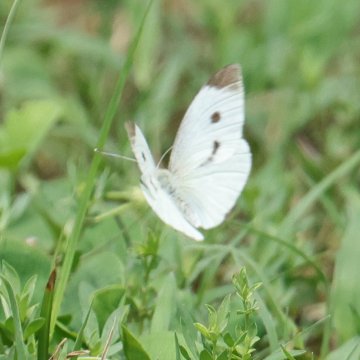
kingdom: Animalia
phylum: Arthropoda
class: Insecta
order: Lepidoptera
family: Pieridae
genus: Pieris
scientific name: Pieris rapae
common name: Cabbage White
